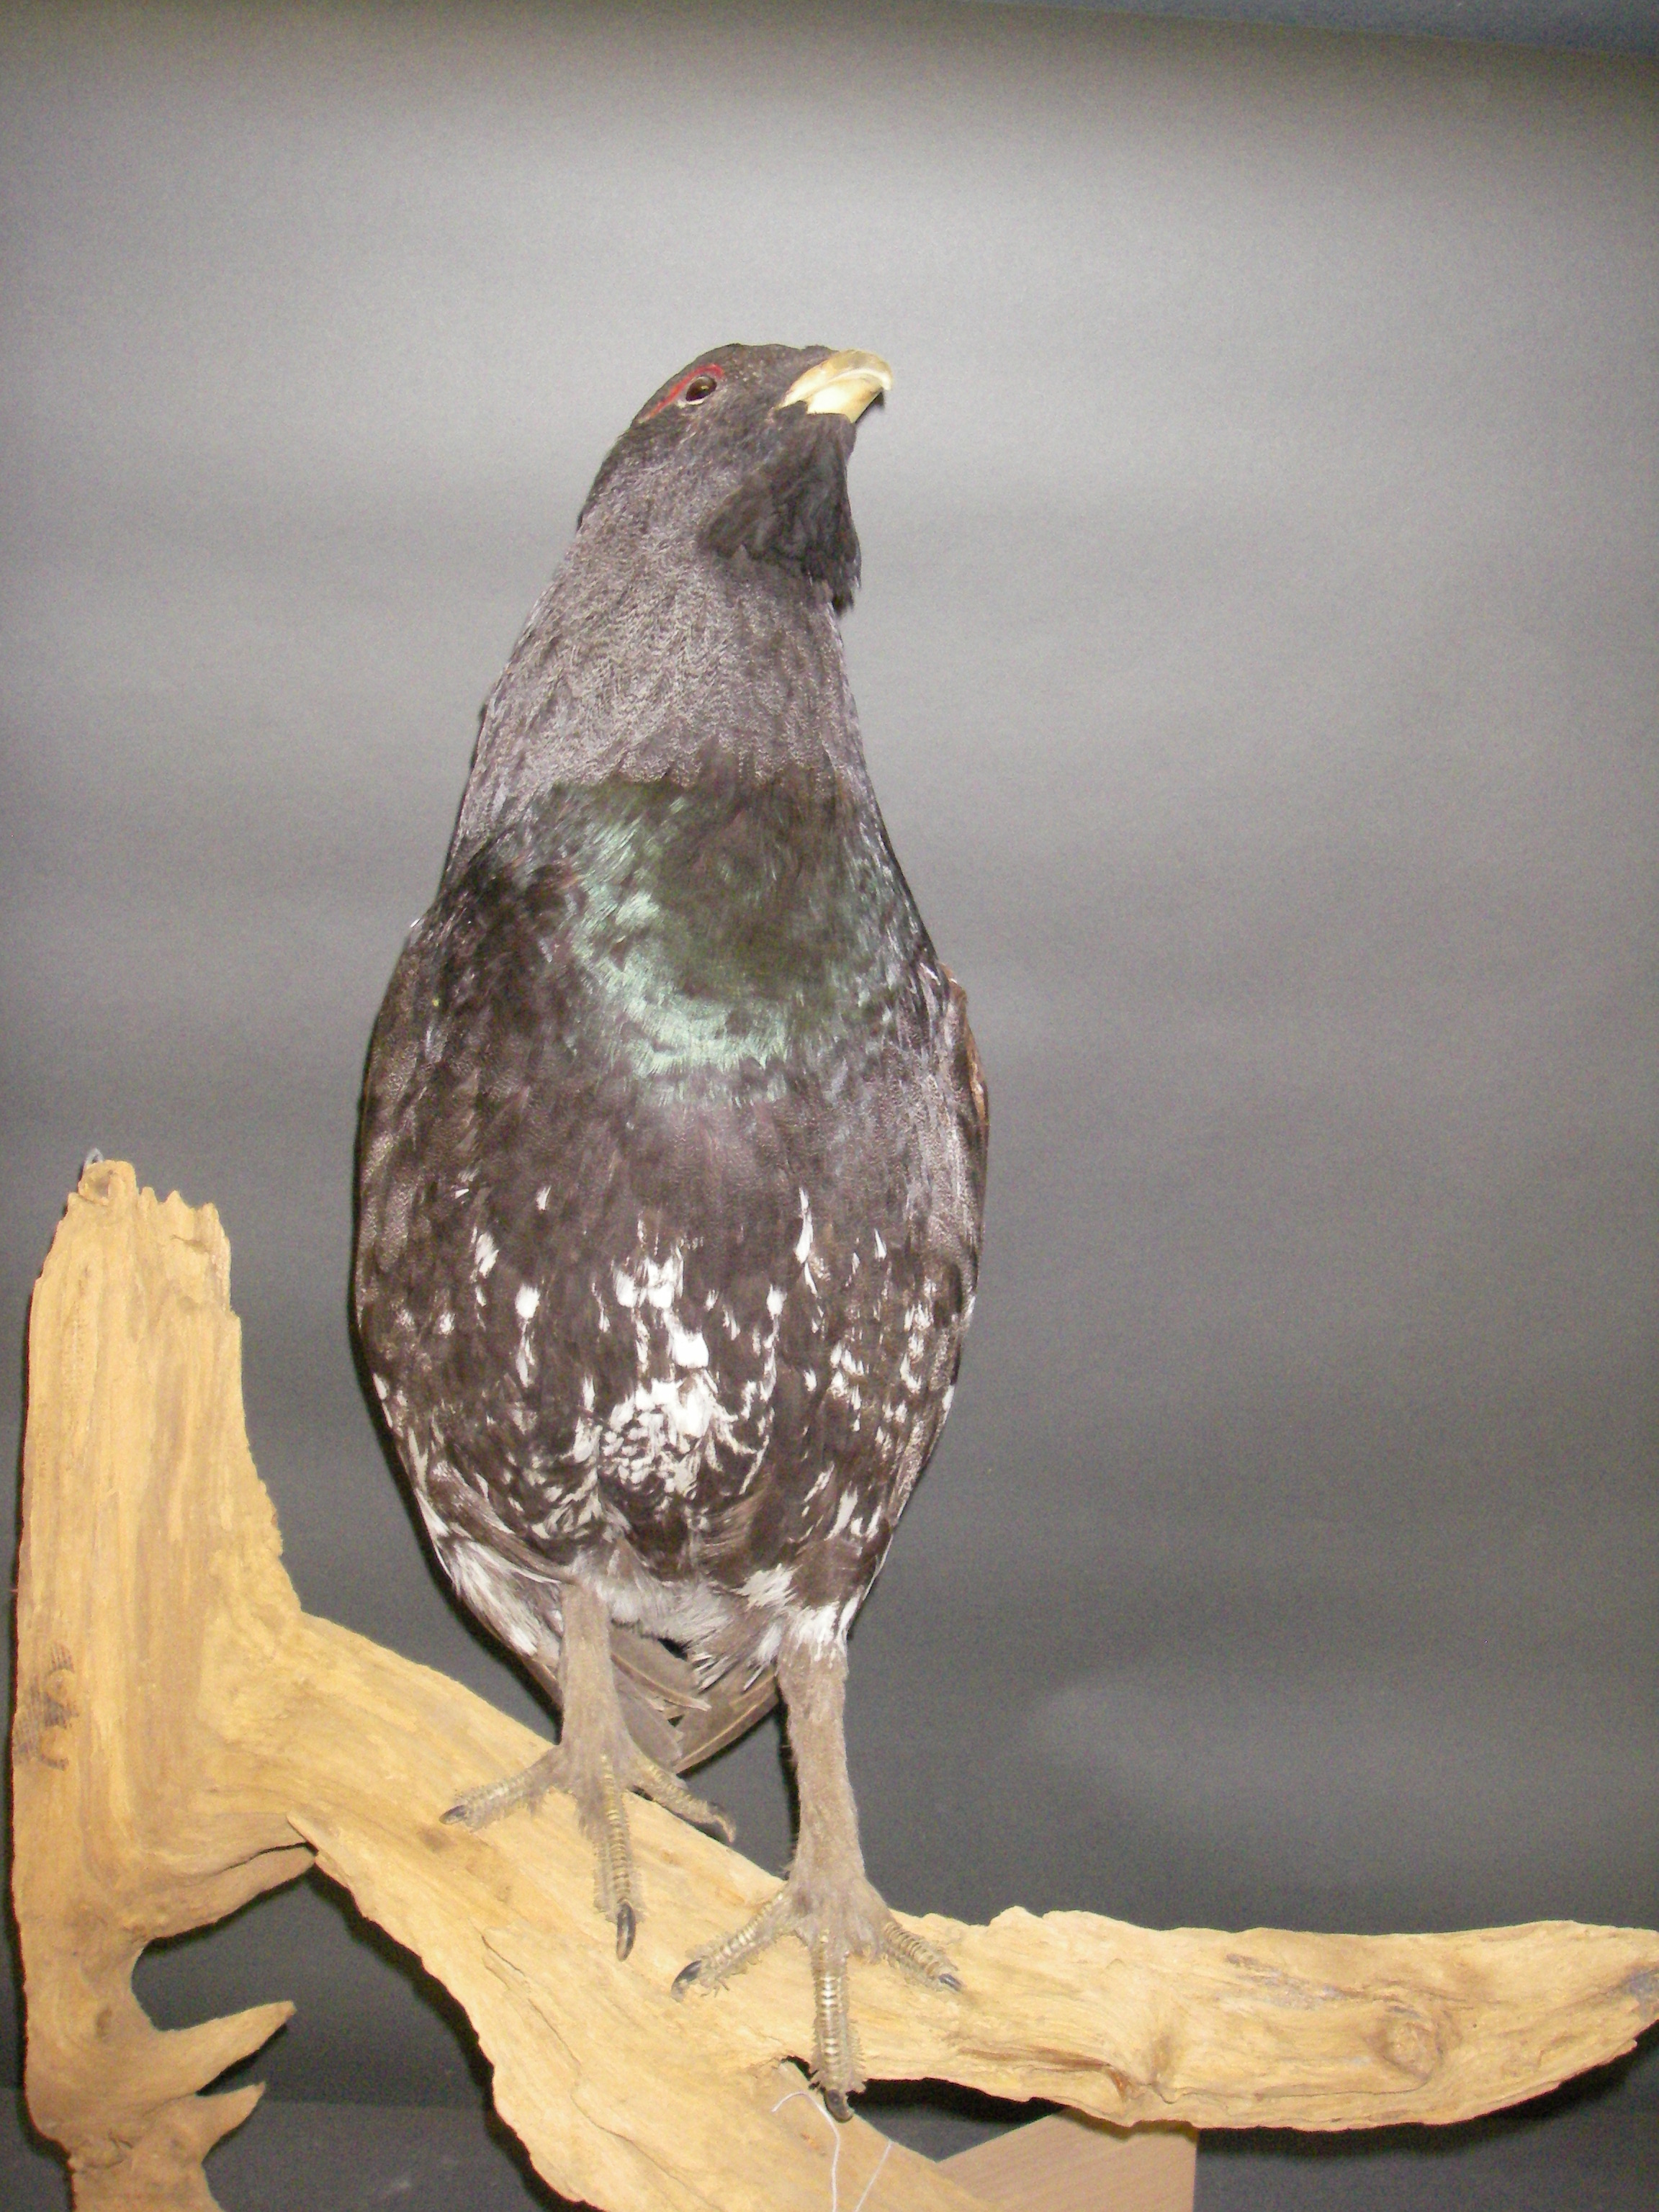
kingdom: Animalia
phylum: Chordata
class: Aves
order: Galliformes
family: Phasianidae
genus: Tetrao
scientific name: Tetrao urogallus
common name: Western capercaillie
